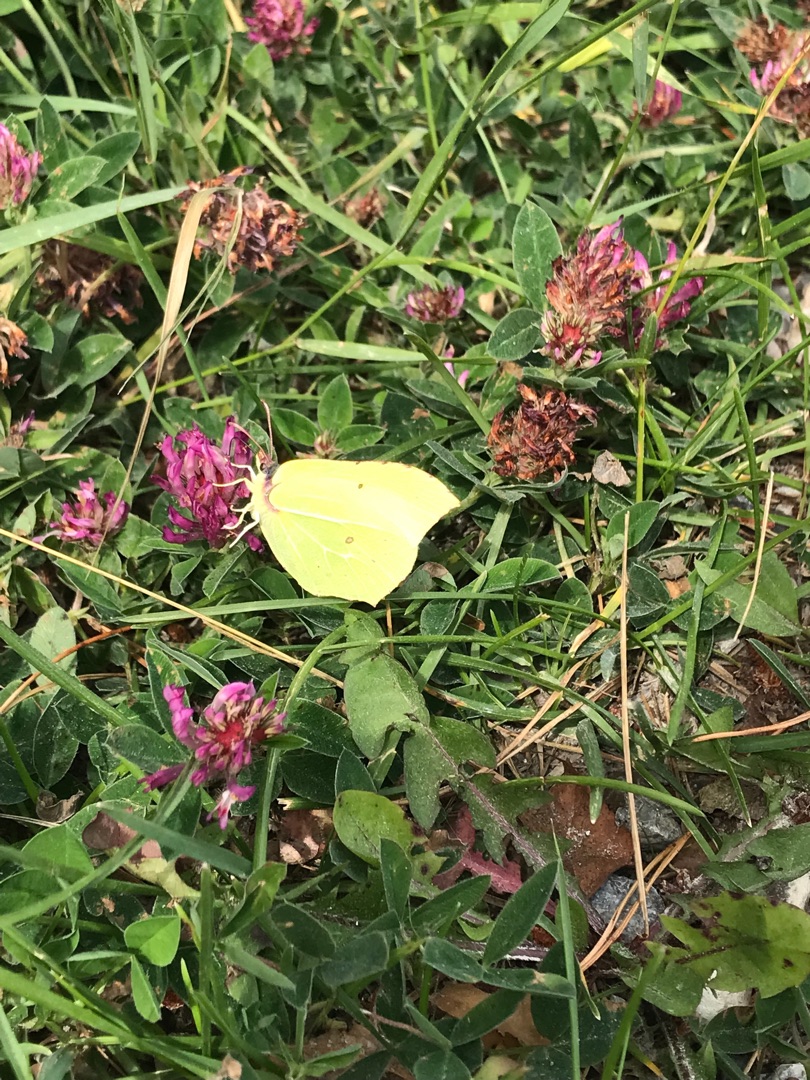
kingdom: Animalia
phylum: Arthropoda
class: Insecta
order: Lepidoptera
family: Pieridae
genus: Gonepteryx
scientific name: Gonepteryx rhamni
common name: Citronsommerfugl
